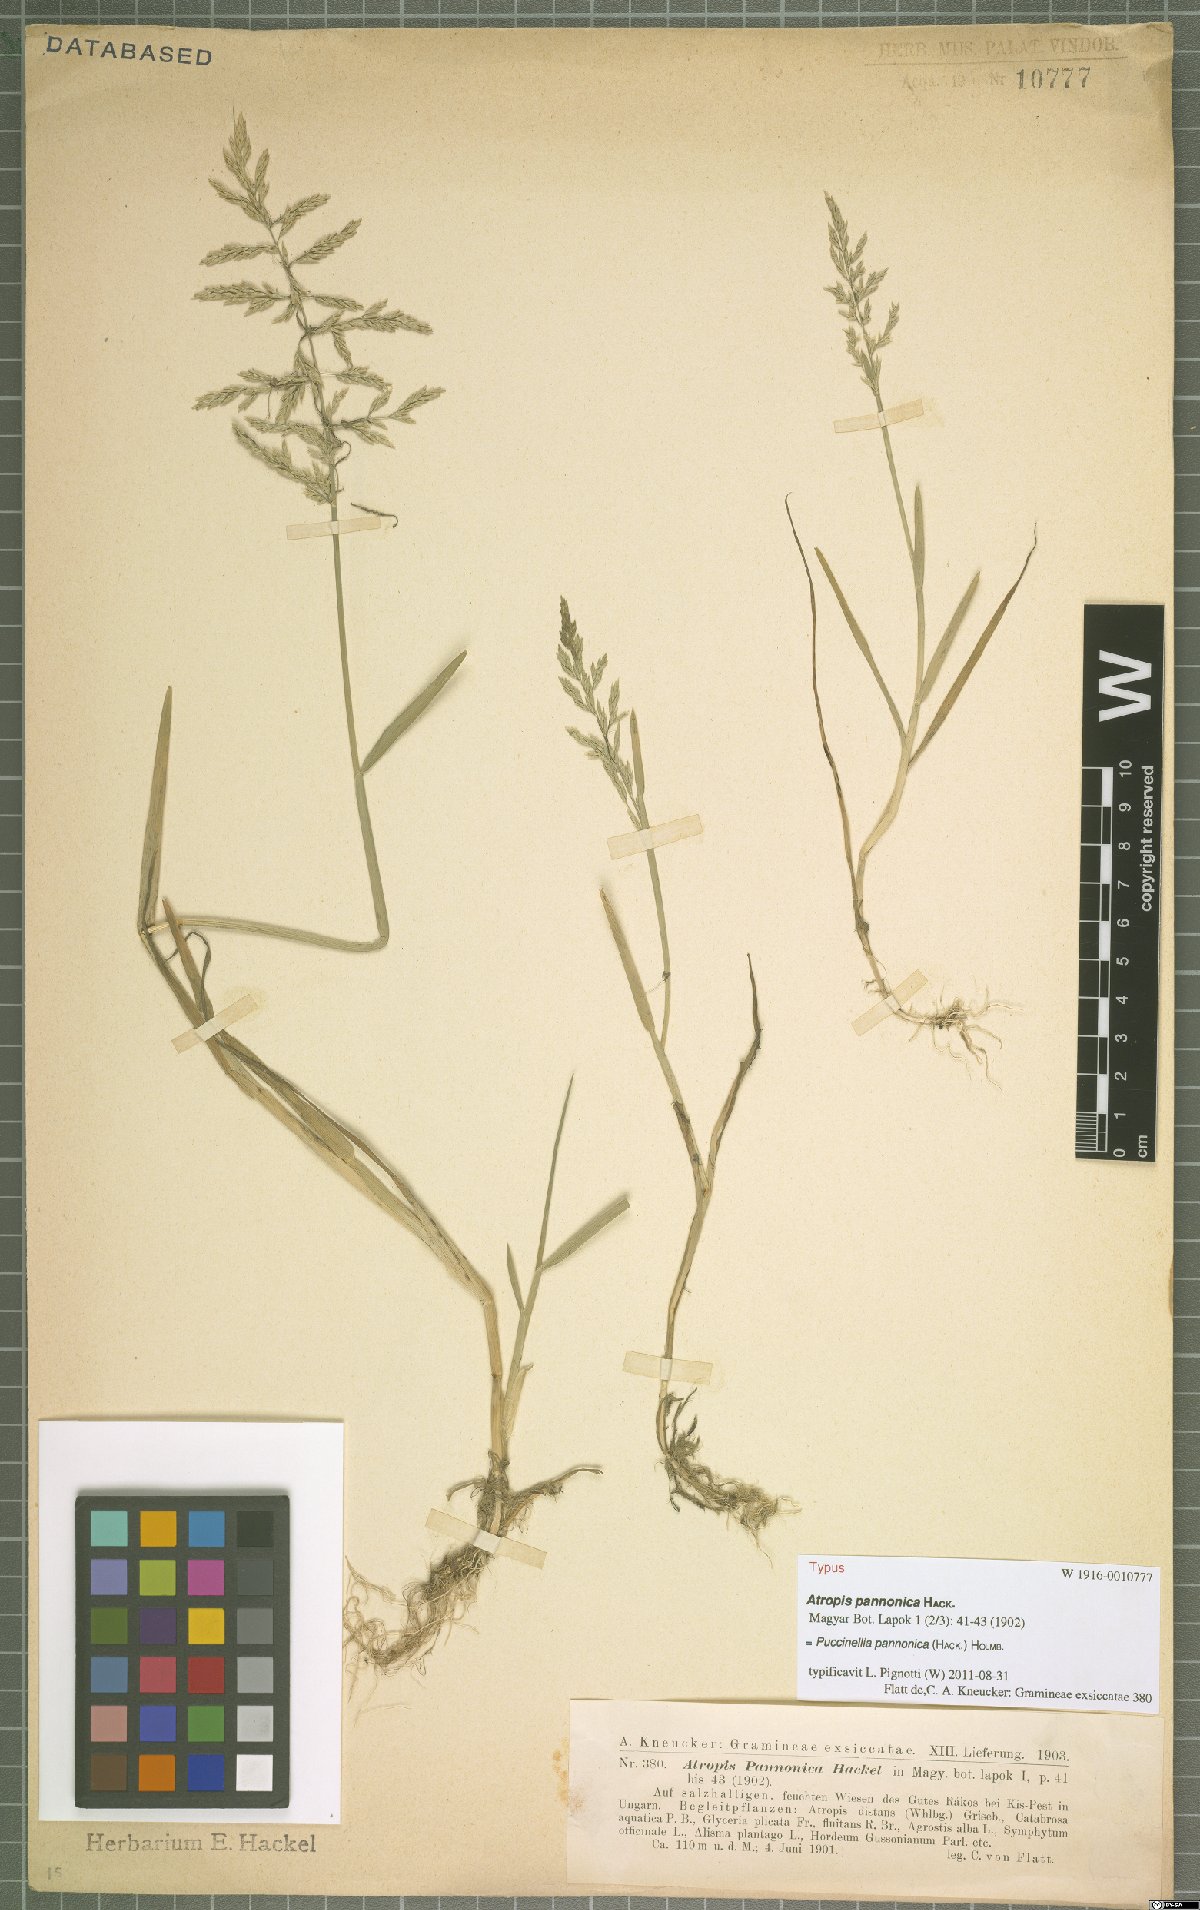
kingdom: Plantae
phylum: Tracheophyta
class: Liliopsida
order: Poales
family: Poaceae
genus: Puccinellia
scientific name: Puccinellia pannonica
